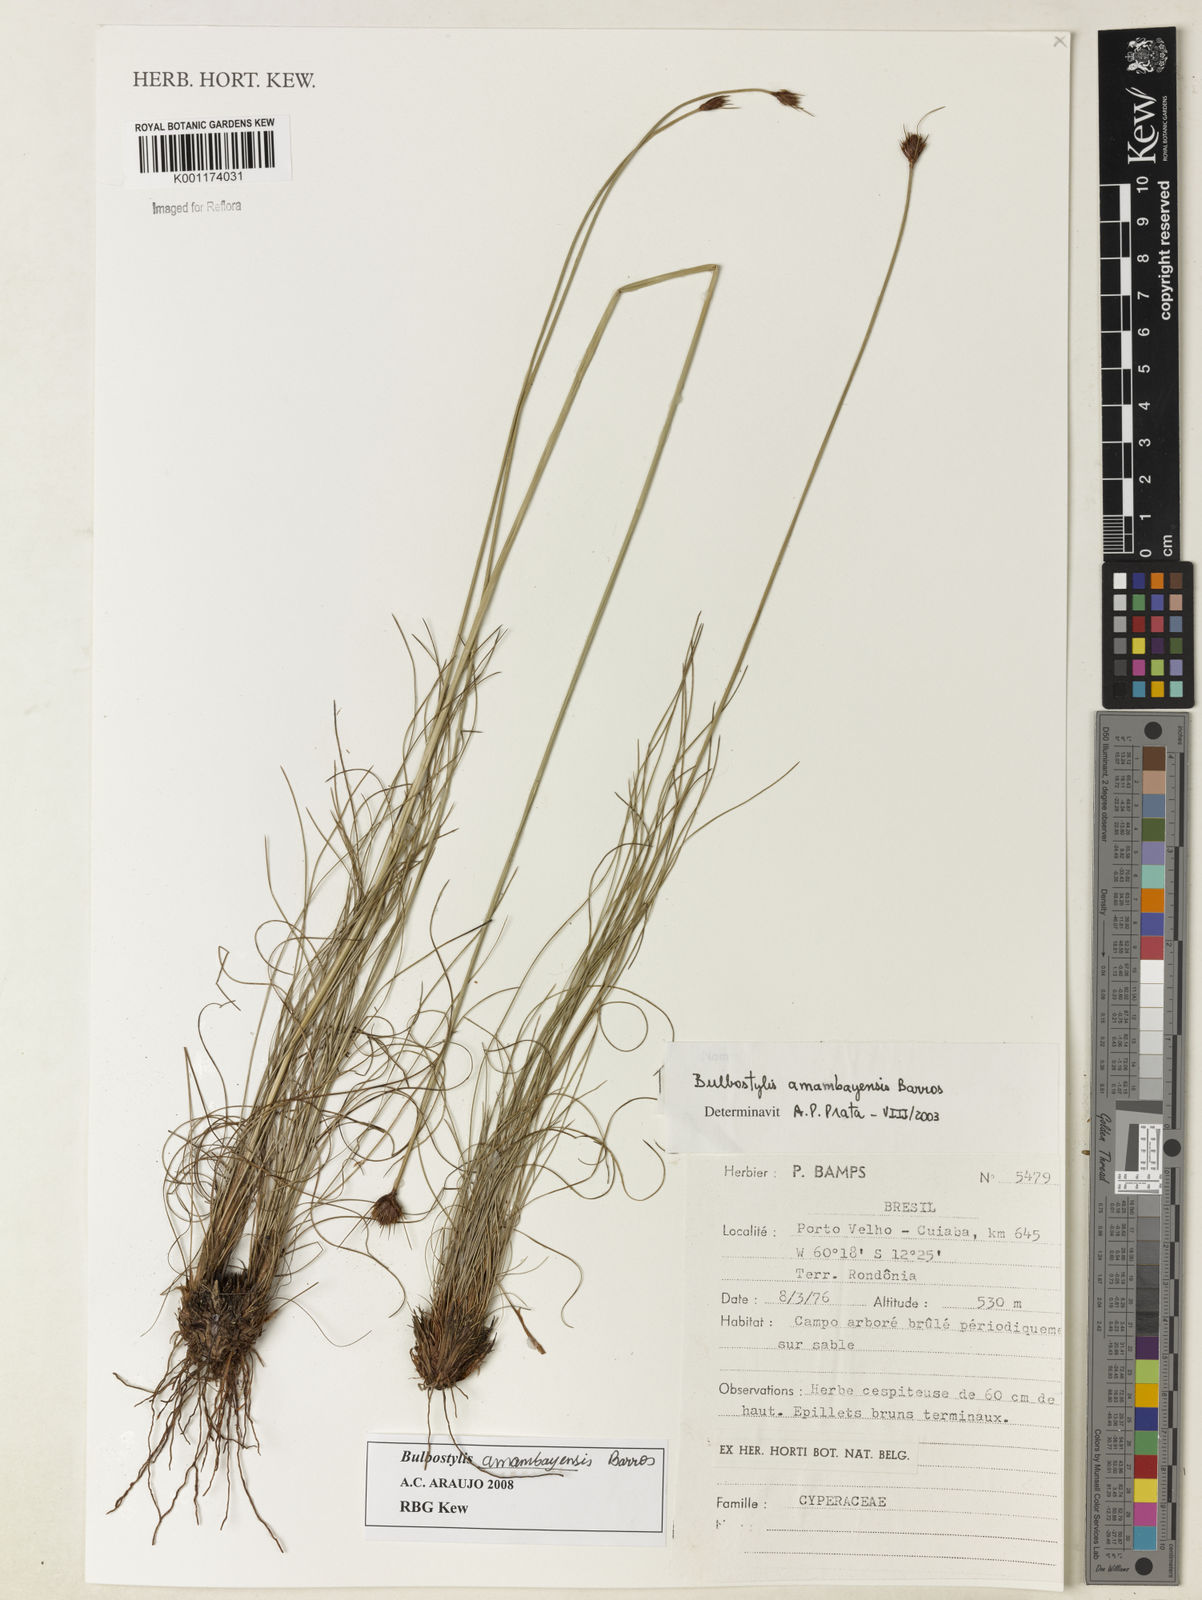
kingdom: Plantae
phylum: Tracheophyta
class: Liliopsida
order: Poales
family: Cyperaceae
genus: Bulbostylis
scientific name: Bulbostylis amambayensis
